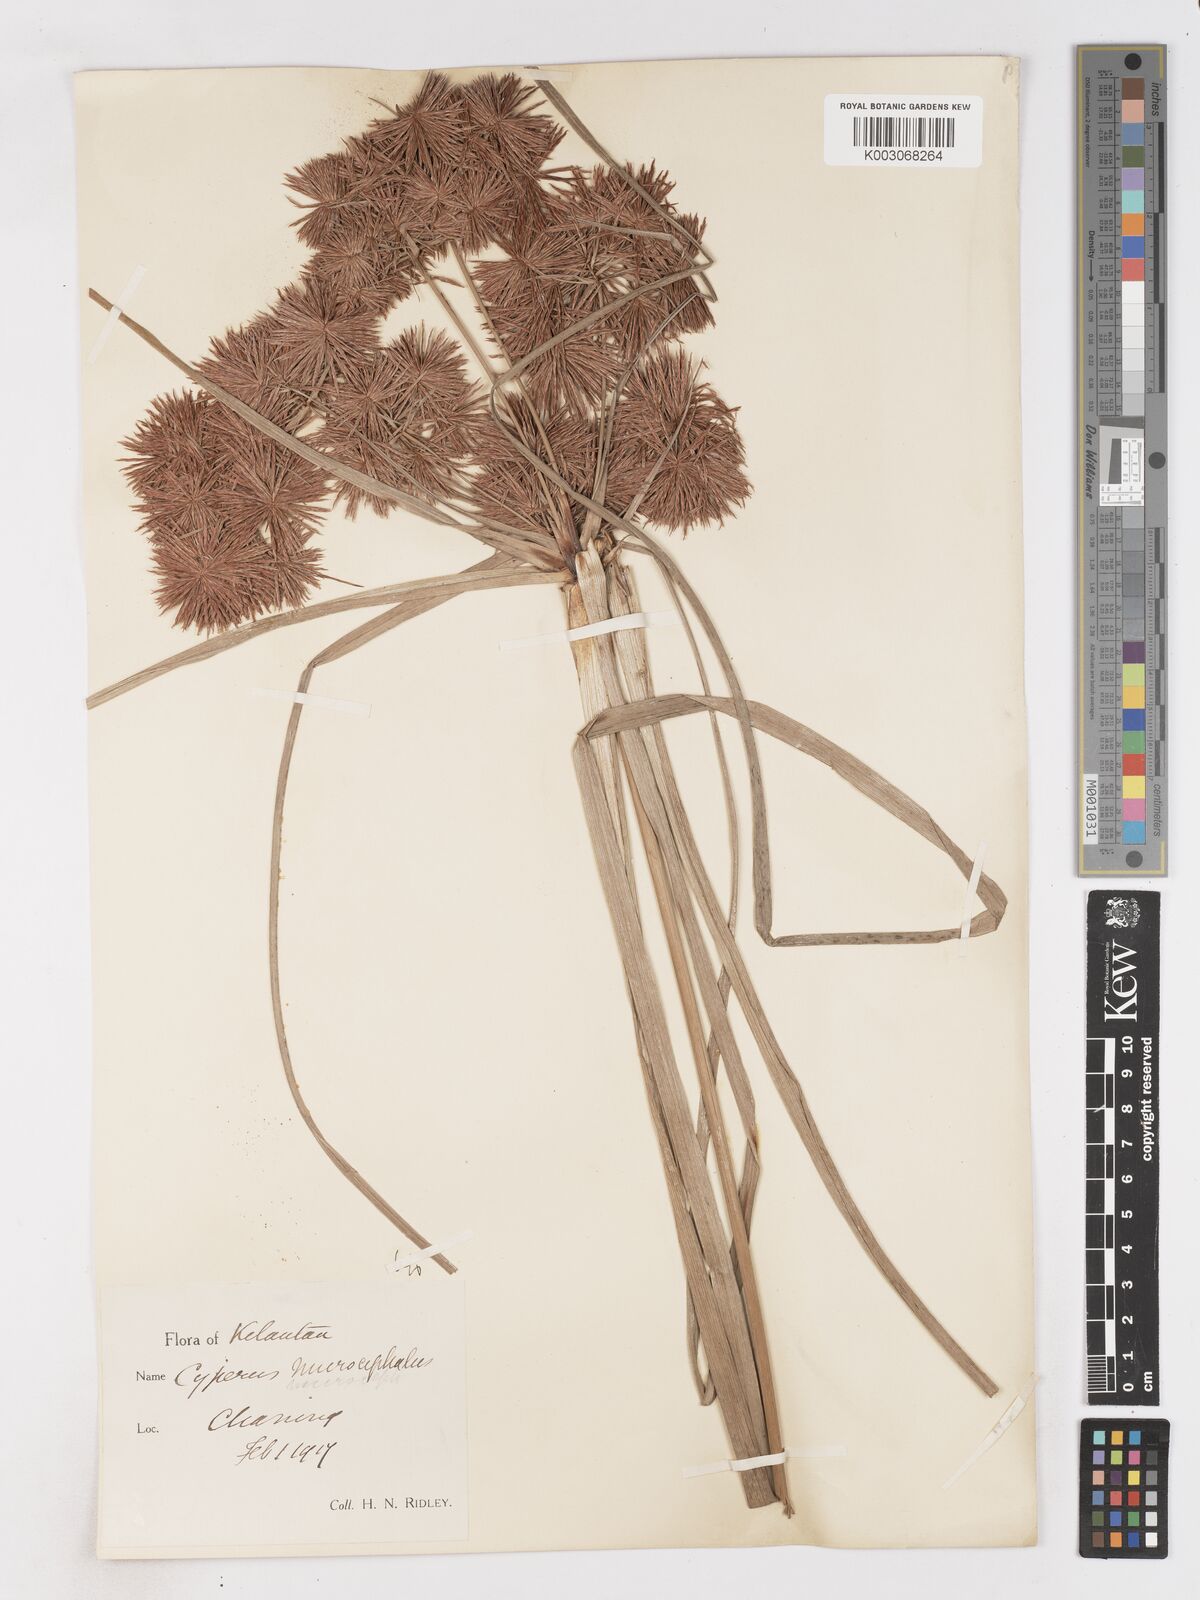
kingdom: Plantae
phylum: Tracheophyta
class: Liliopsida
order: Poales
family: Cyperaceae
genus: Cyperus
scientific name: Cyperus compactus
